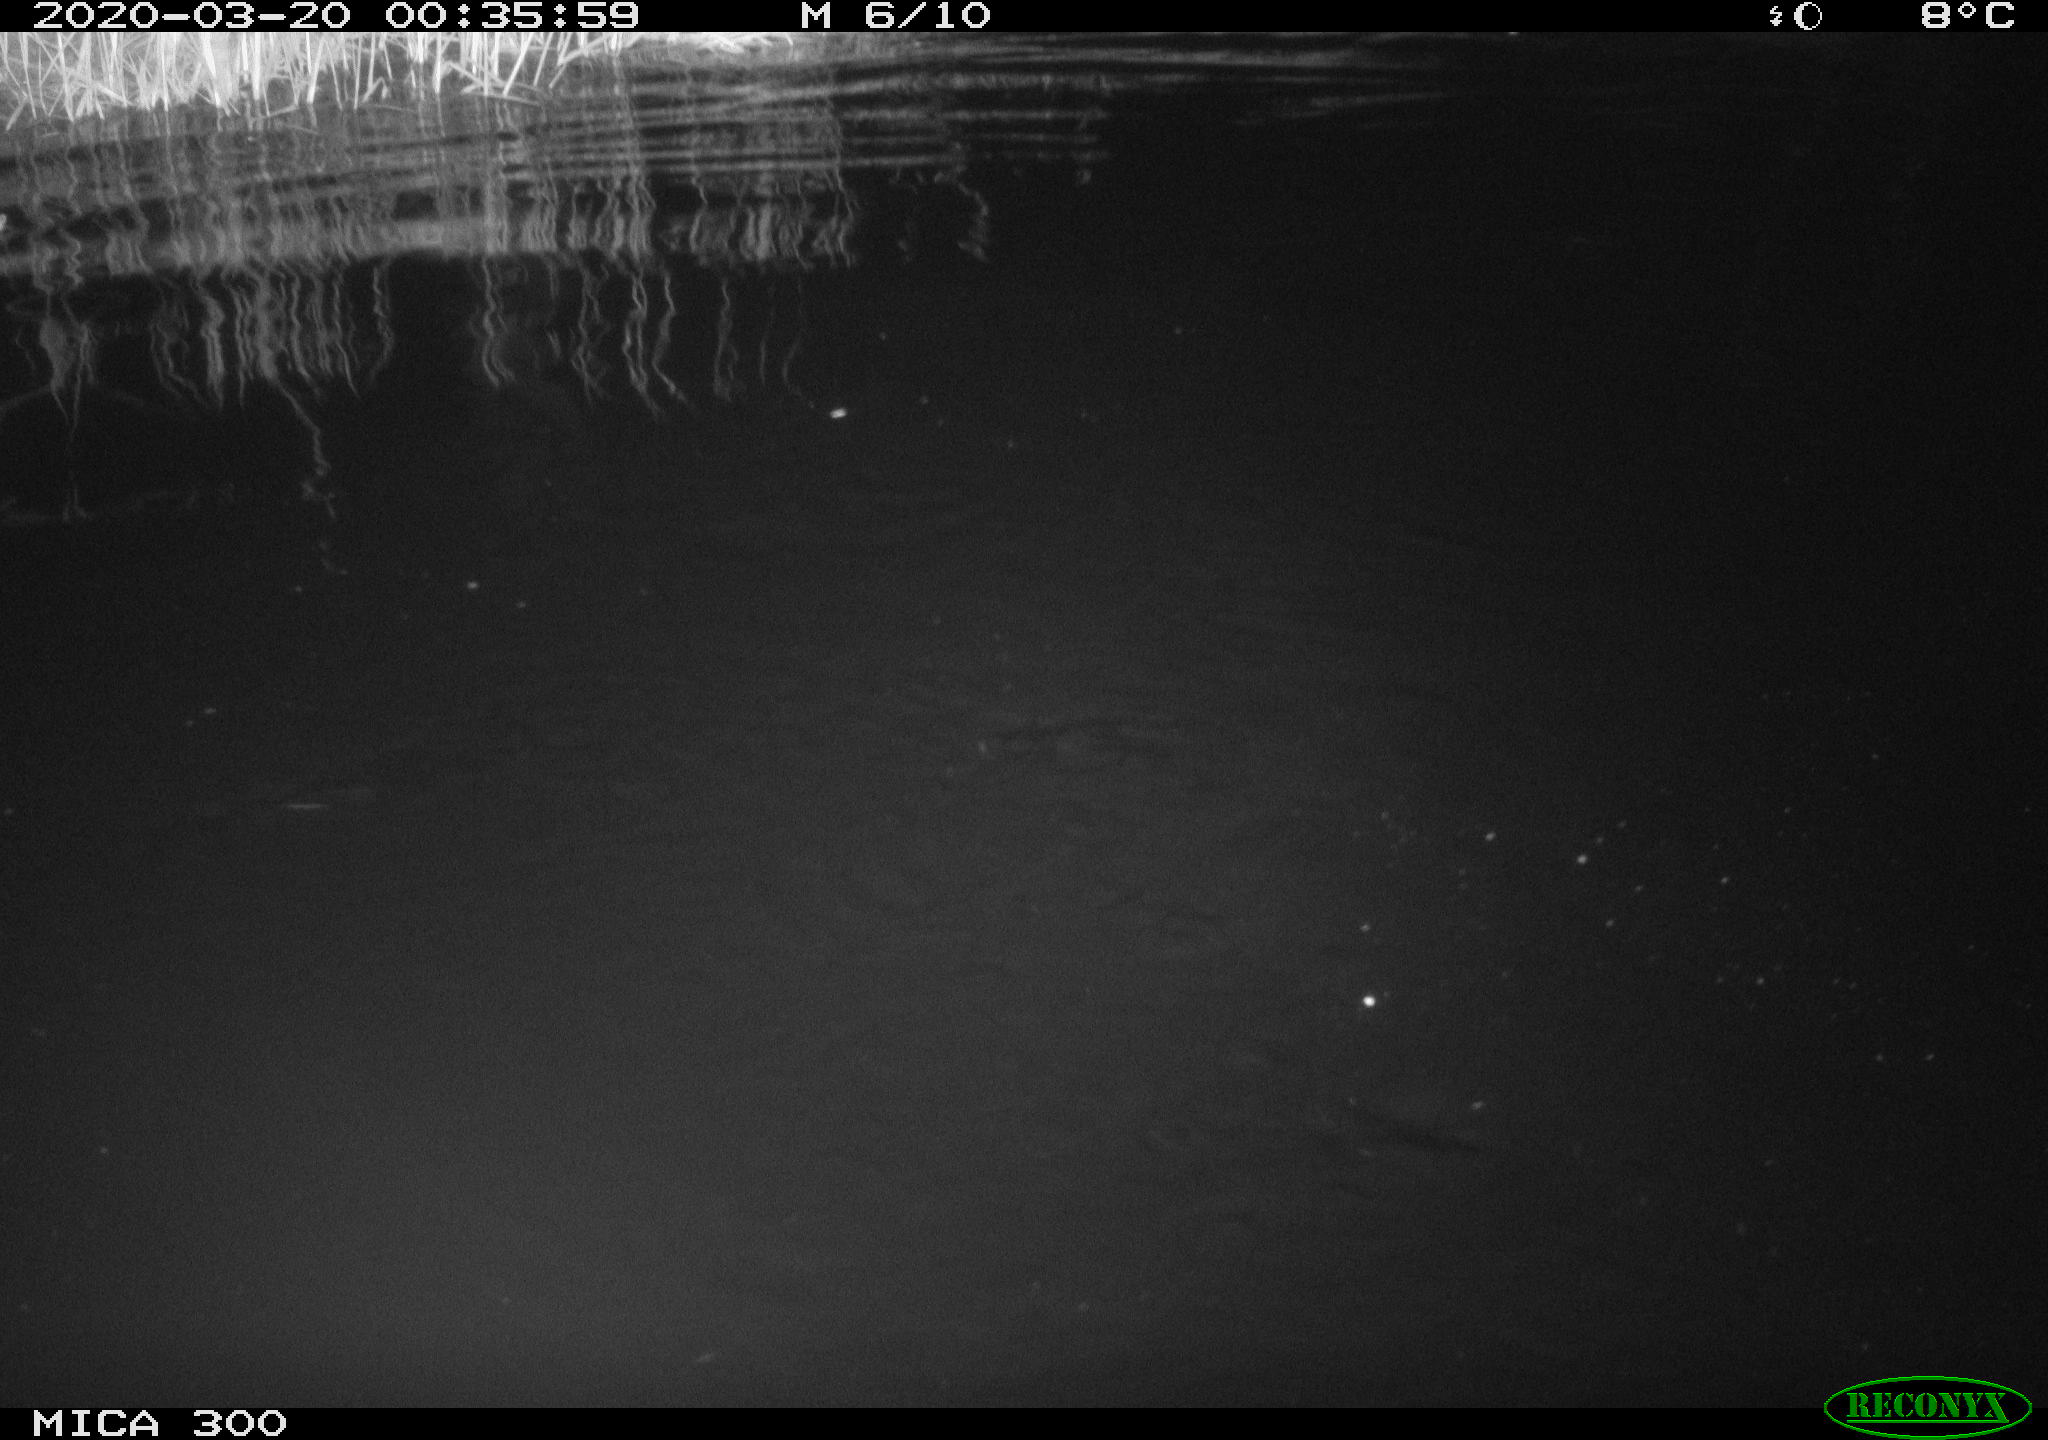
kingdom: Animalia
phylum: Chordata
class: Mammalia
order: Rodentia
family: Castoridae
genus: Castor
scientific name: Castor fiber
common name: Eurasian beaver
